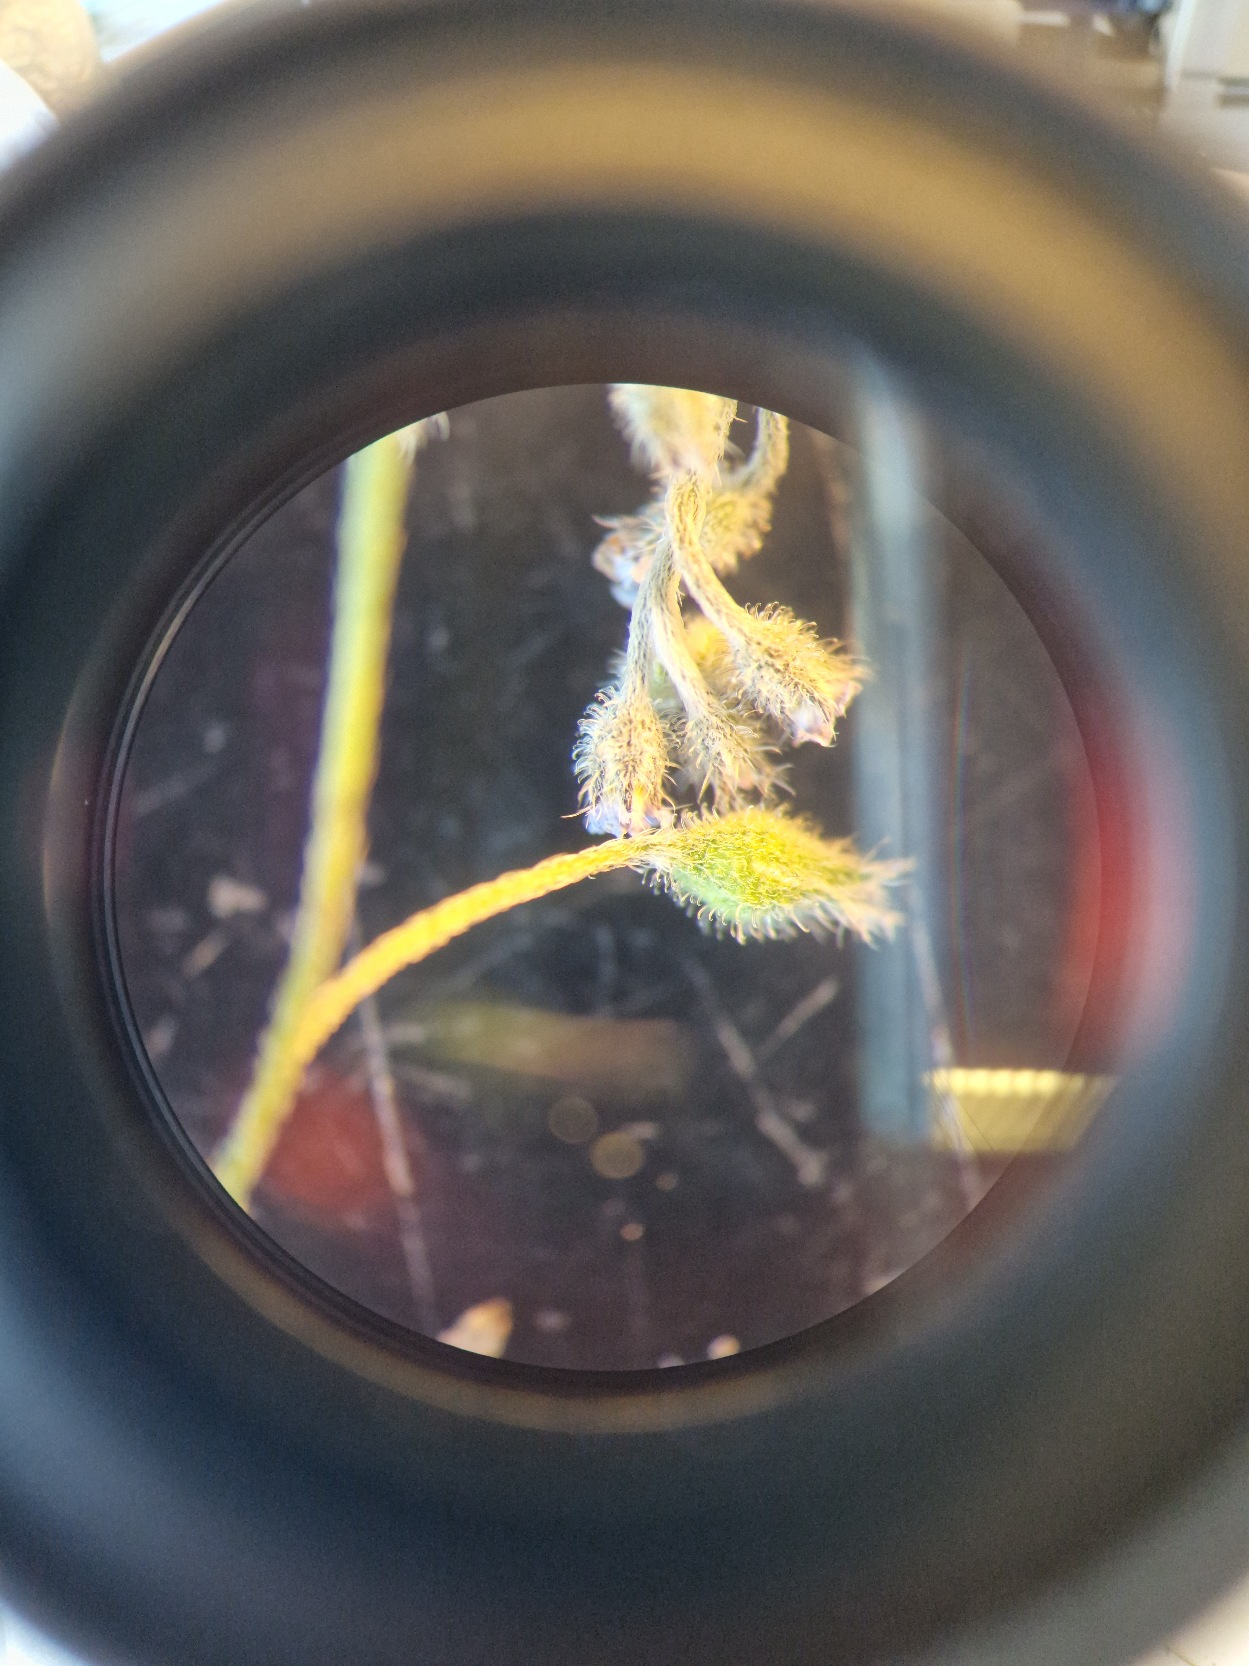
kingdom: Plantae
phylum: Tracheophyta
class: Magnoliopsida
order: Boraginales
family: Boraginaceae
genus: Myosotis
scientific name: Myosotis arvensis
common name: Mark-forglemmigej
